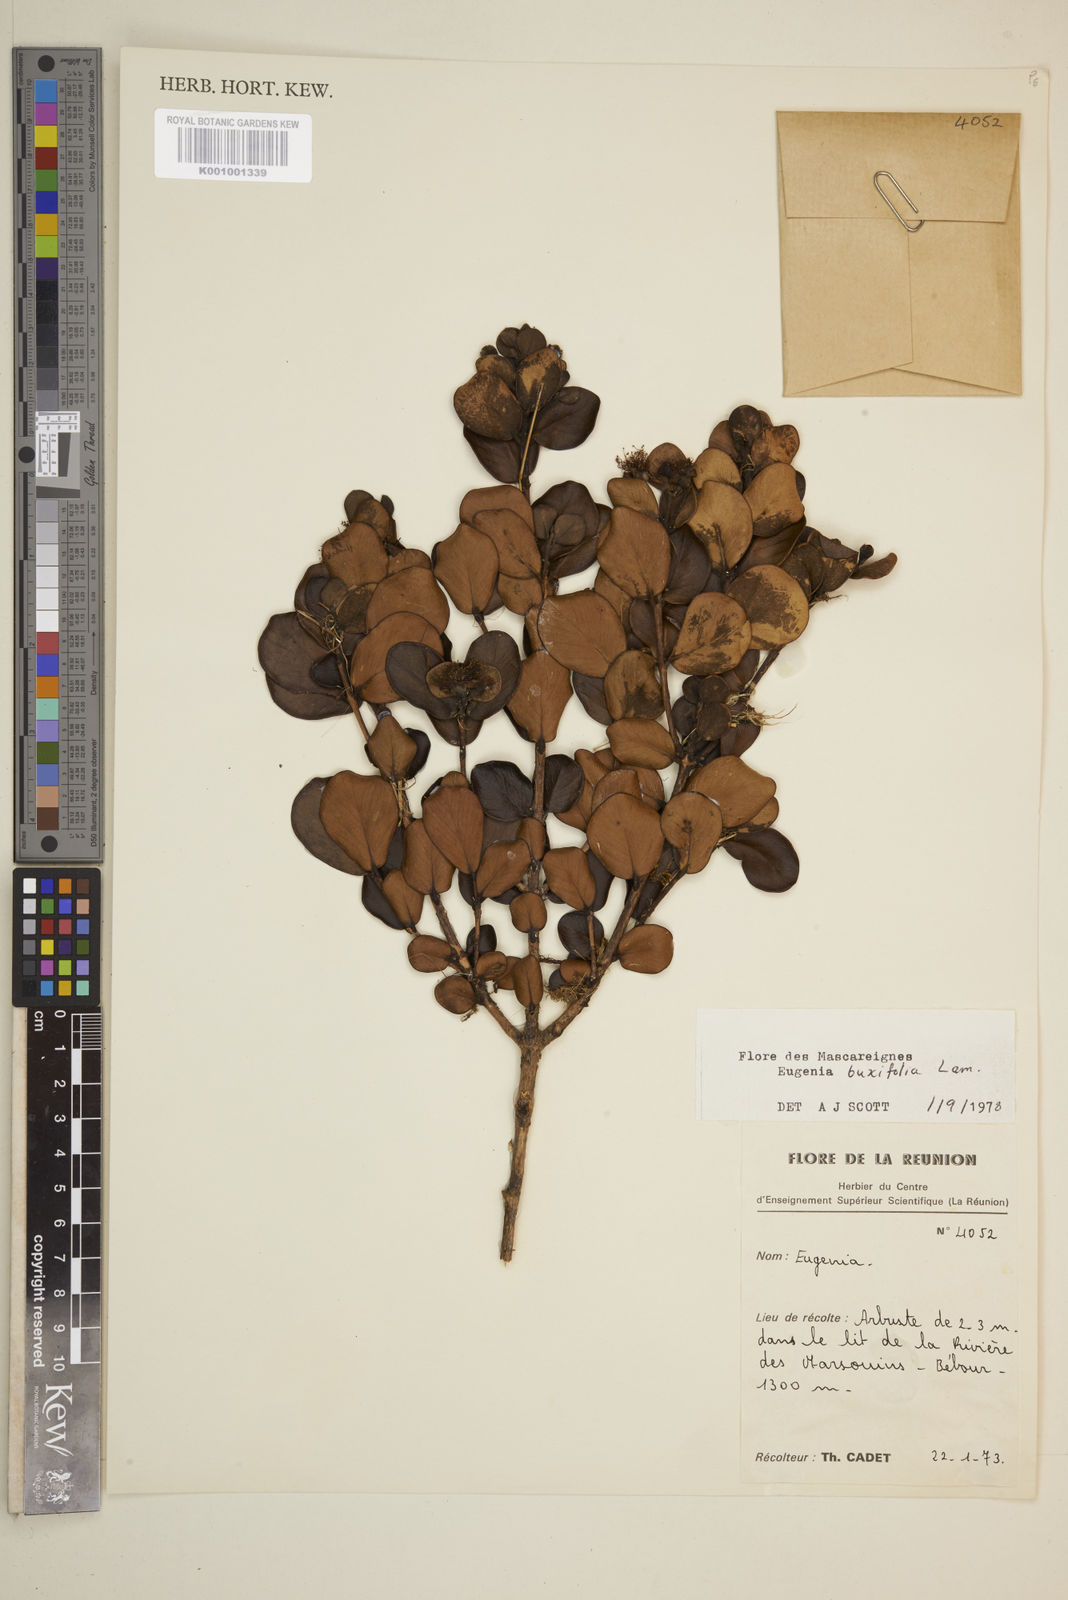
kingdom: Plantae
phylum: Tracheophyta
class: Magnoliopsida
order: Myrtales
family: Myrtaceae
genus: Eugenia
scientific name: Eugenia buxifolia
